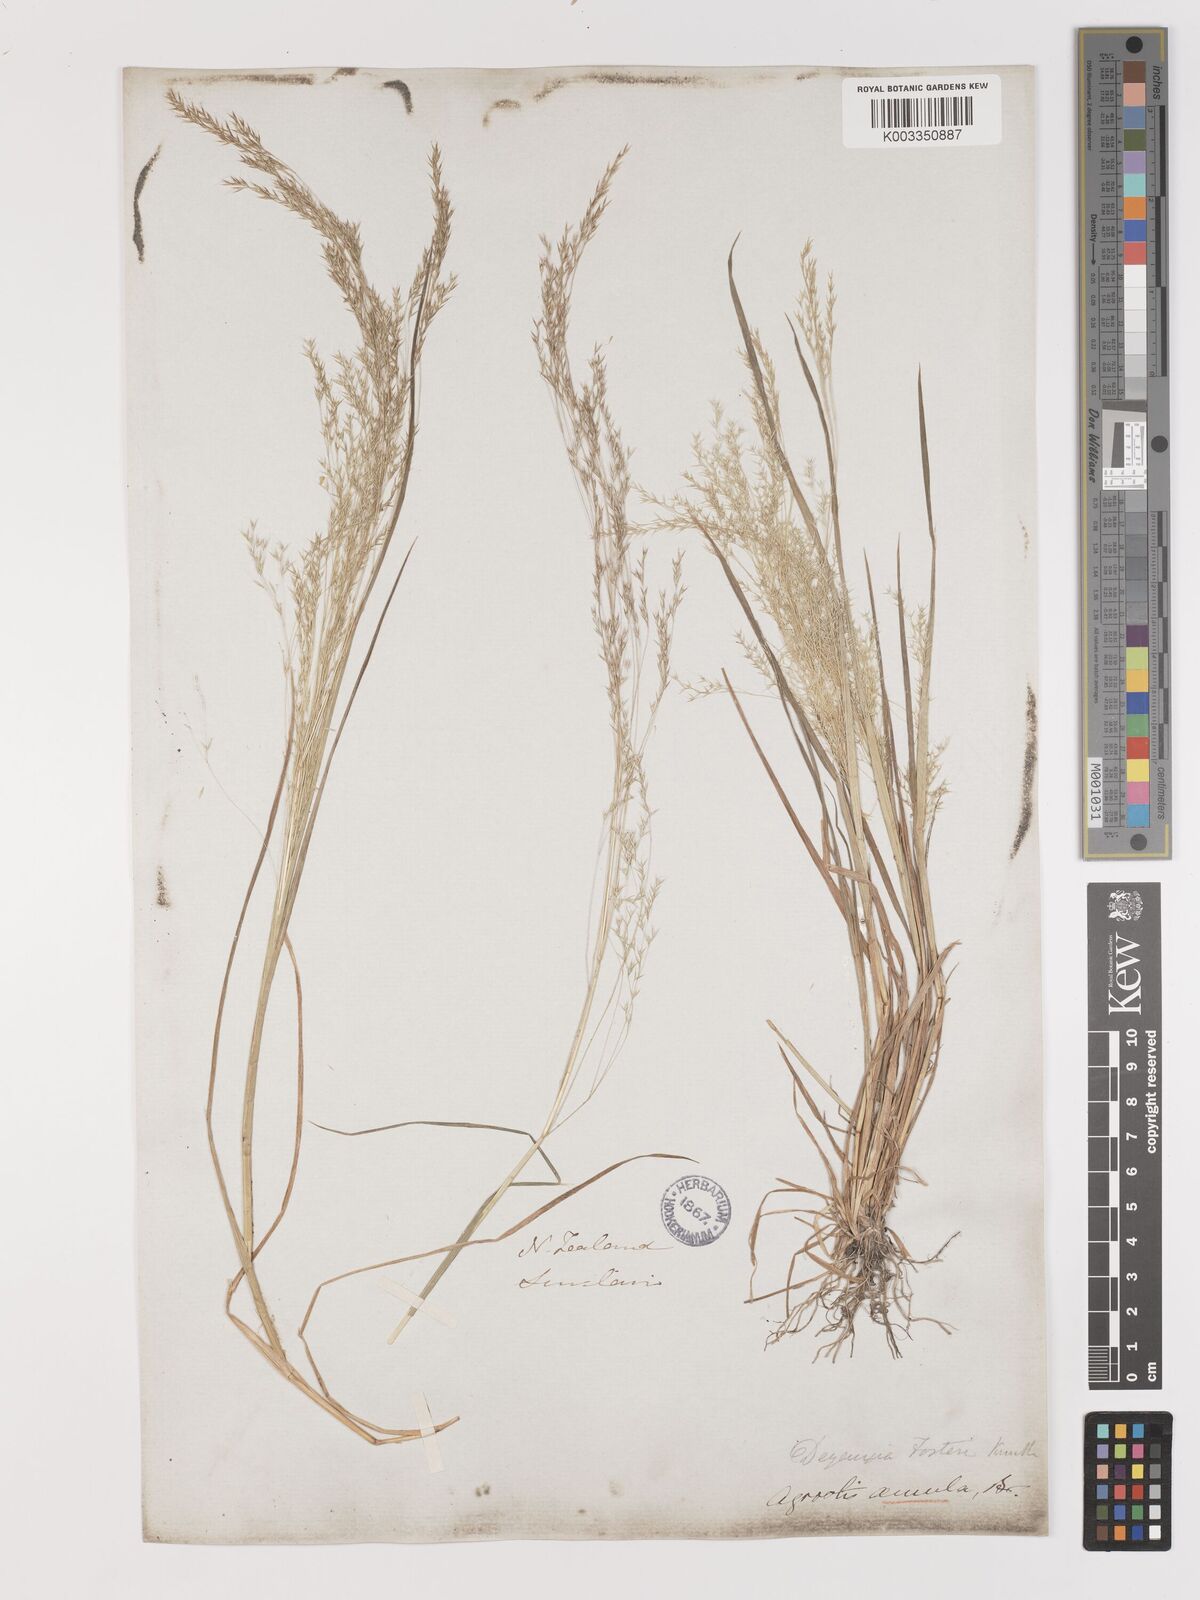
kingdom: Plantae
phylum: Tracheophyta
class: Liliopsida
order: Poales
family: Poaceae
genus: Lachnagrostis
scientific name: Lachnagrostis filiformis
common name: Bentgrass
